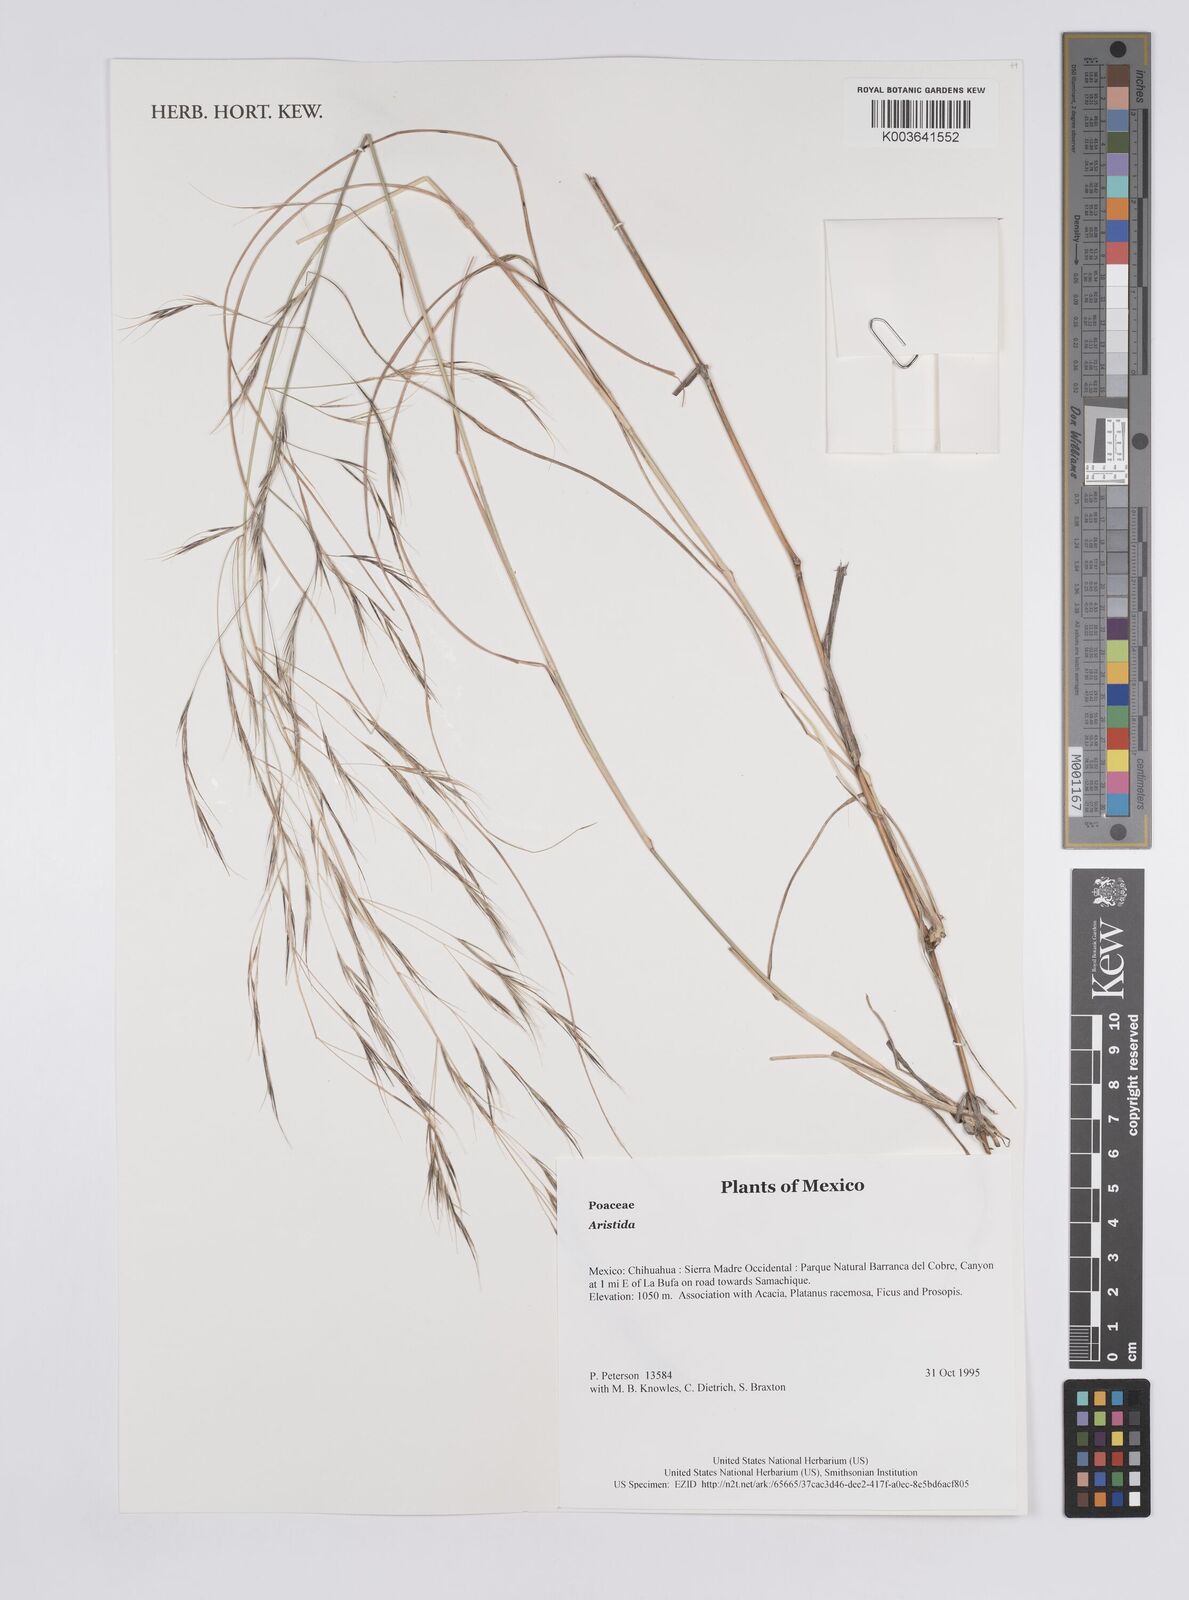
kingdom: Plantae
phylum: Tracheophyta
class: Liliopsida
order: Poales
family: Poaceae
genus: Aristida
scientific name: Aristida
